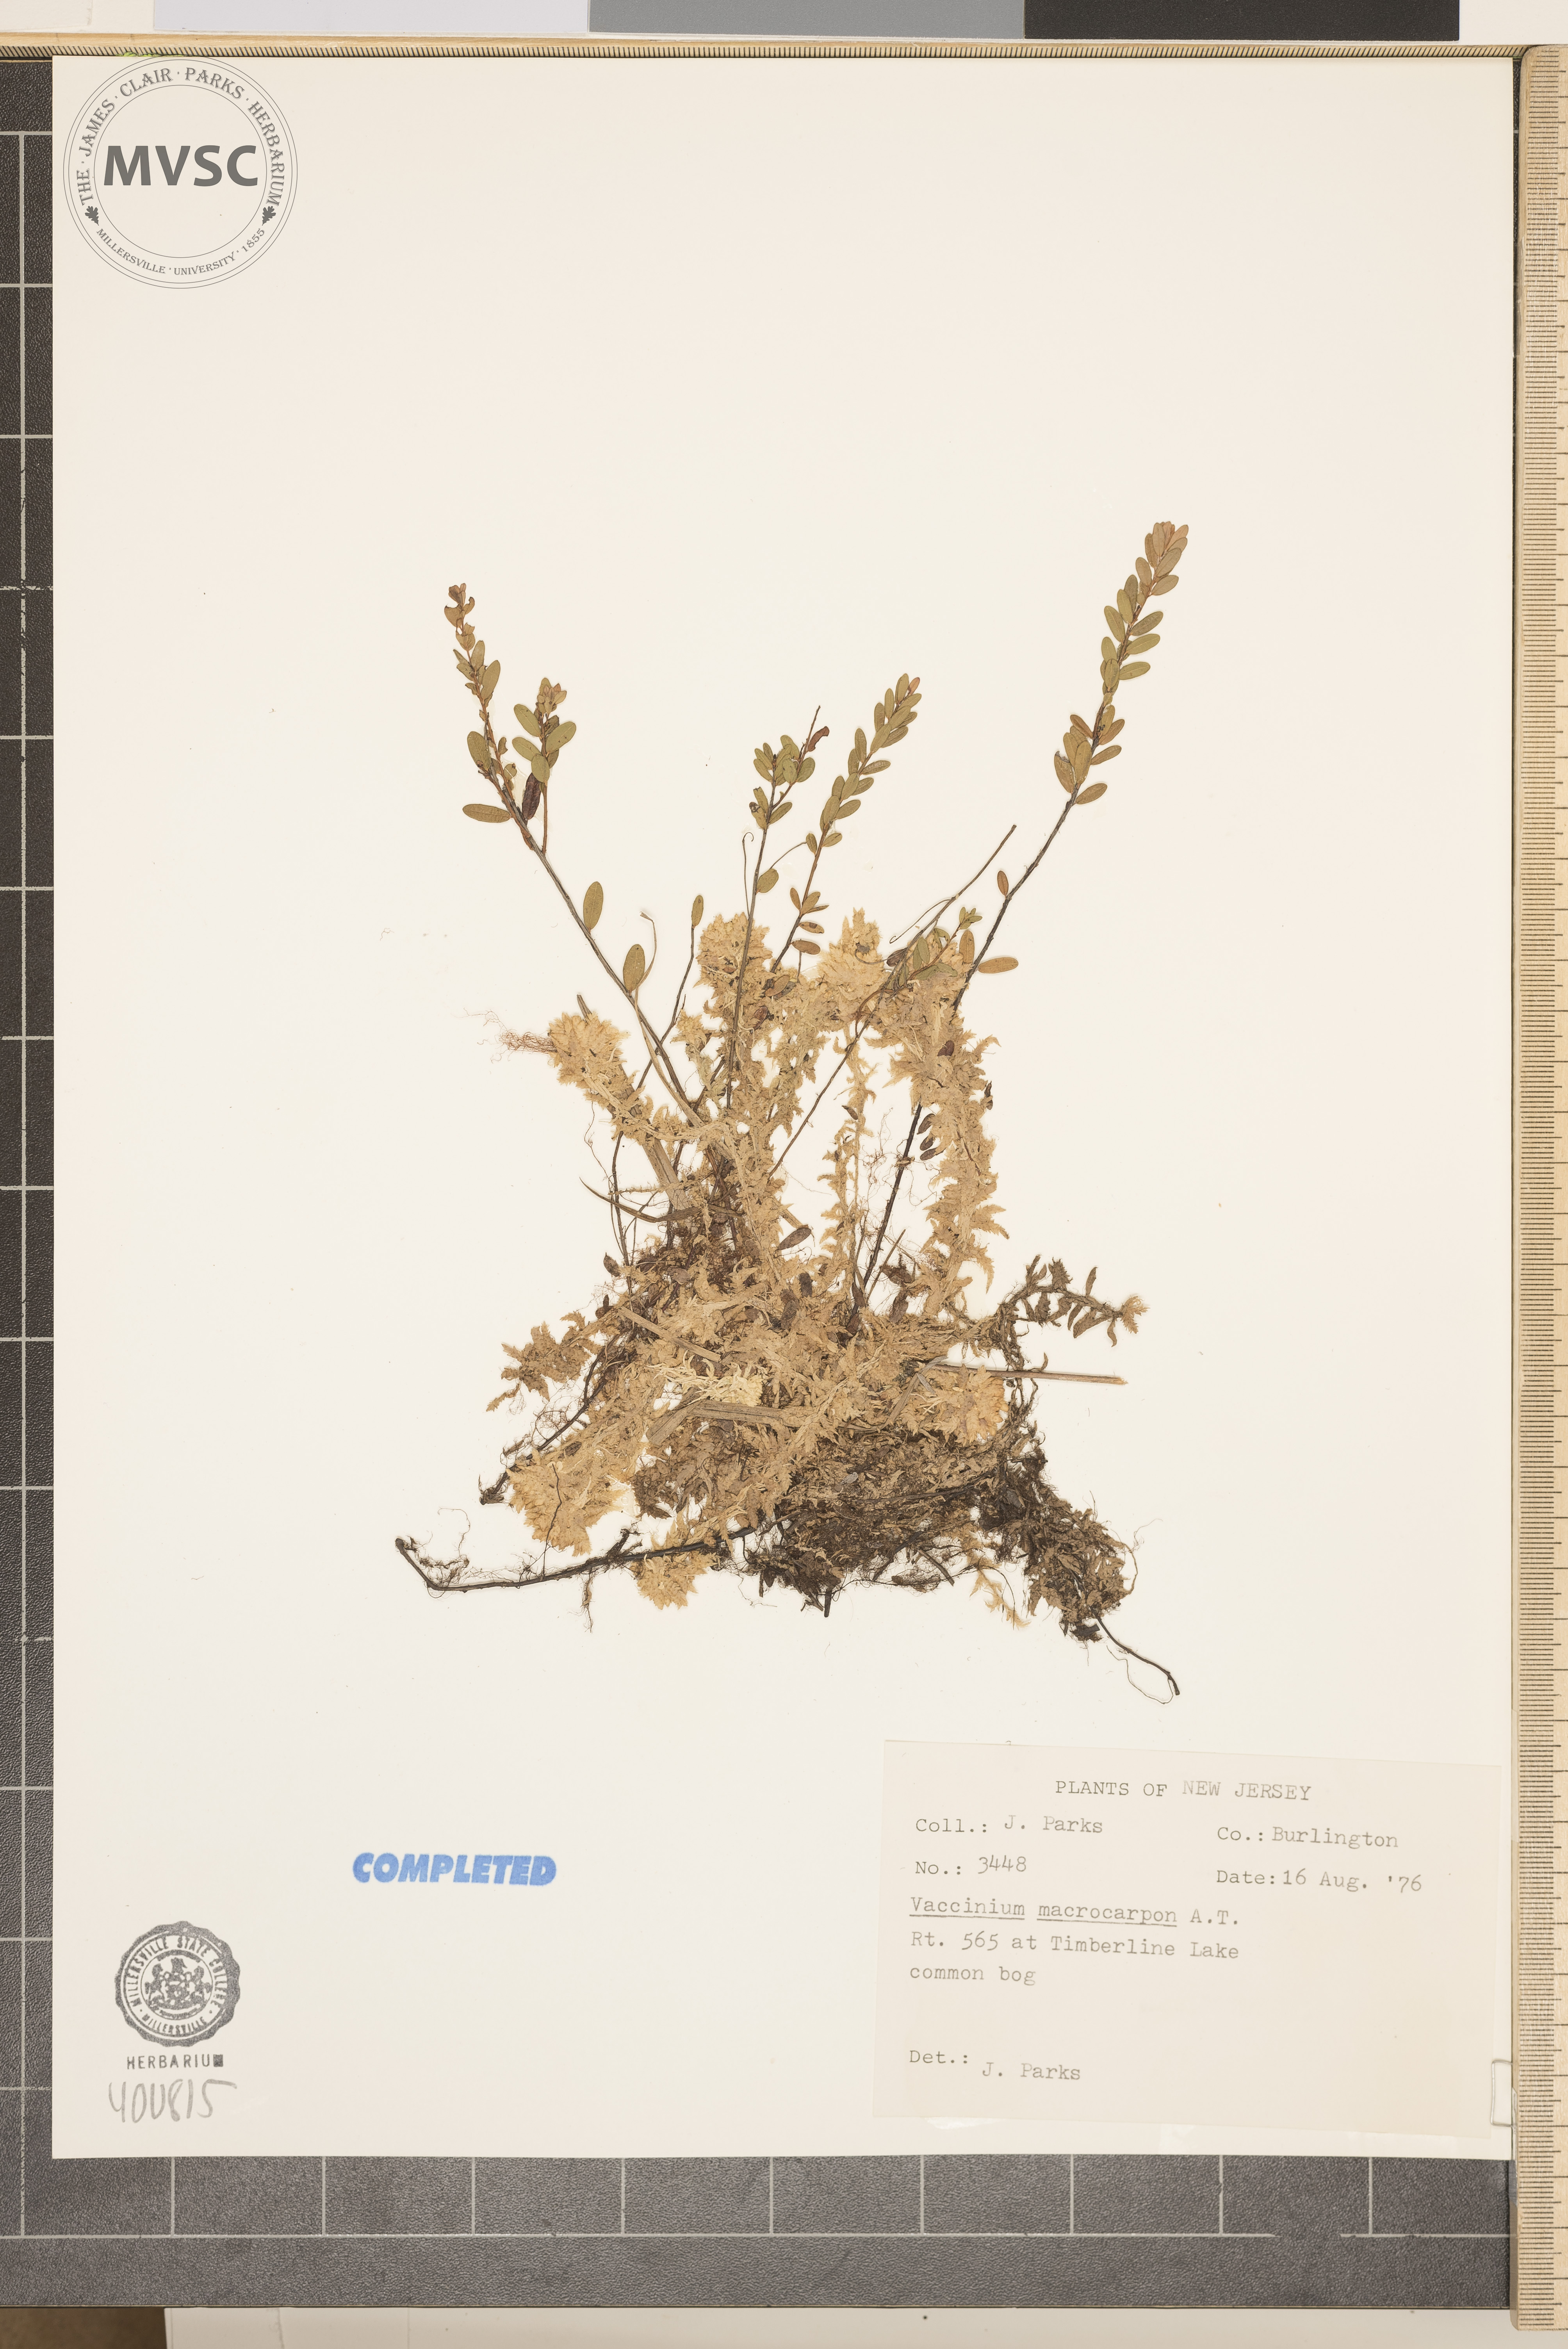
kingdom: Plantae
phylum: Tracheophyta
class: Magnoliopsida
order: Ericales
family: Ericaceae
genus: Vaccinium
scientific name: Vaccinium macrocarpon
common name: blueberry
